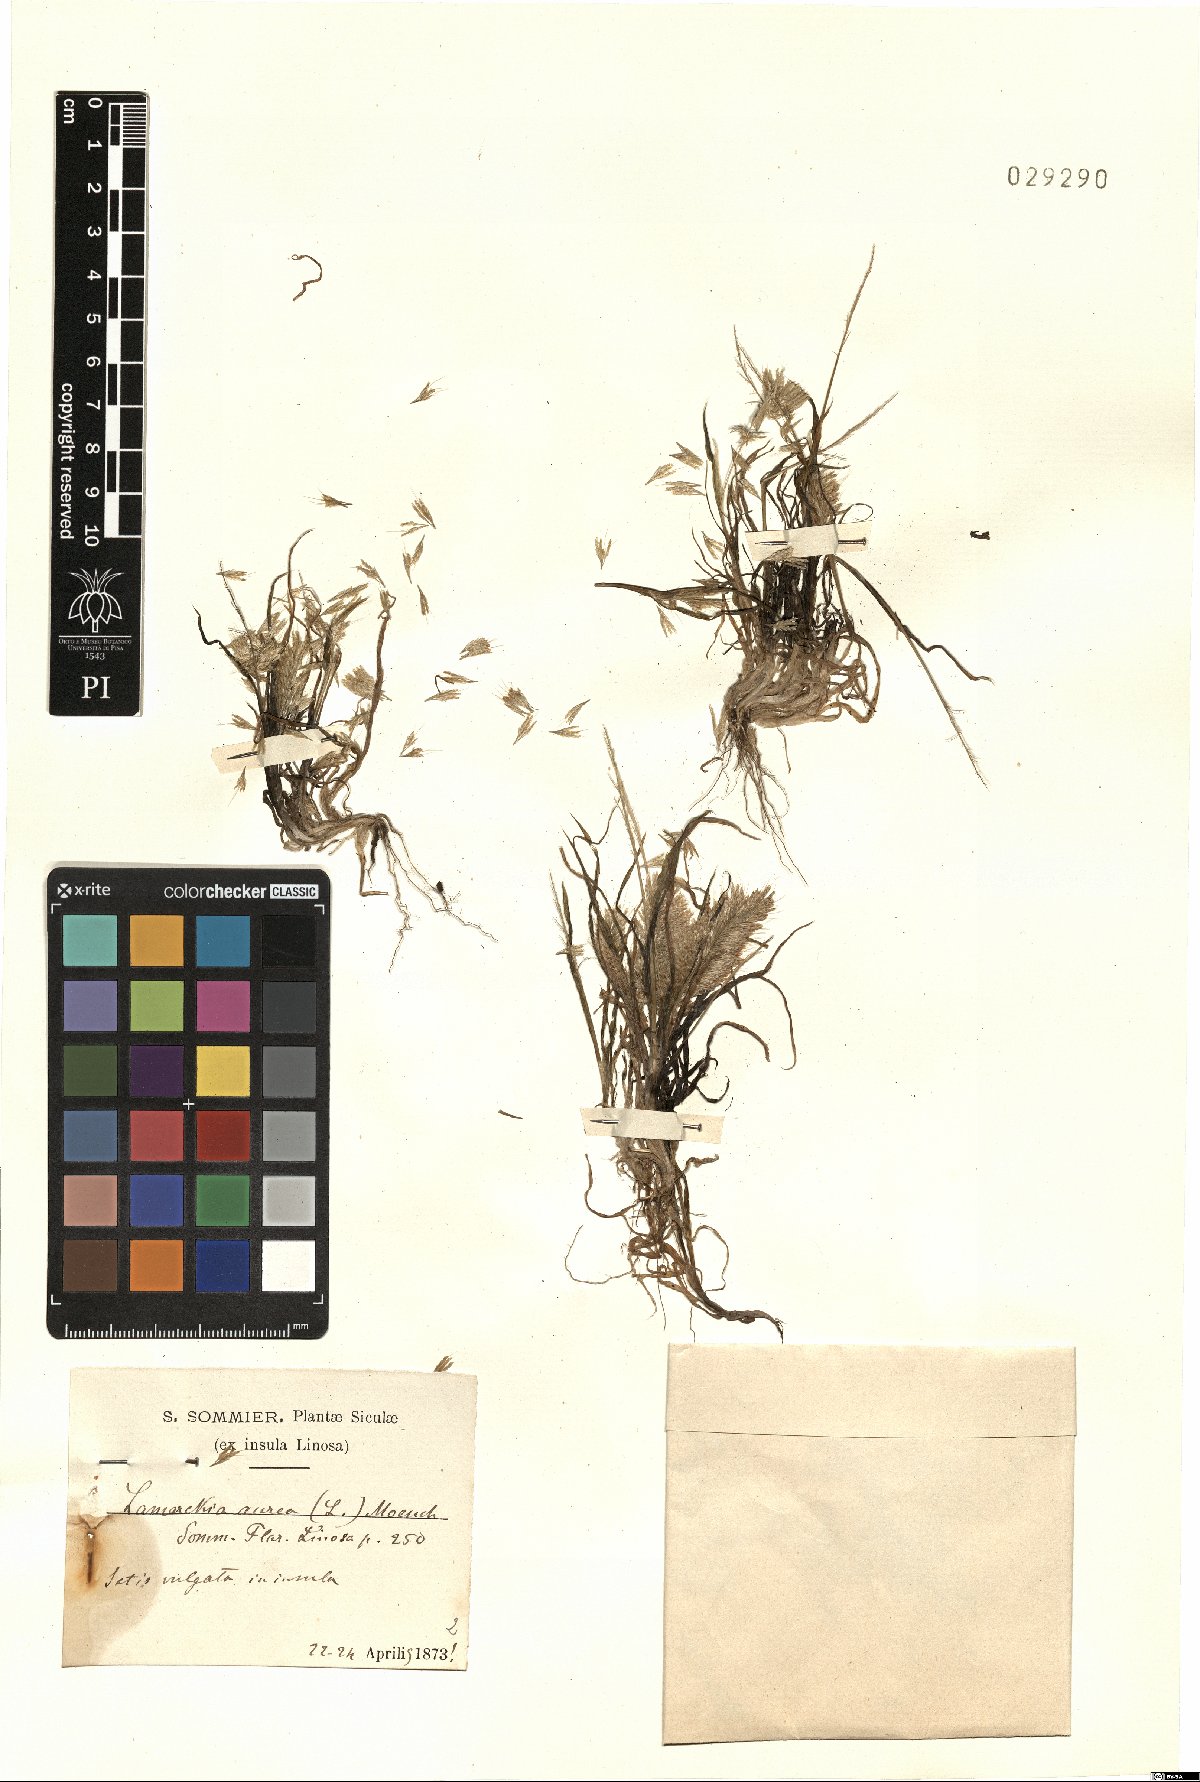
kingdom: Plantae
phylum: Tracheophyta
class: Liliopsida
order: Poales
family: Poaceae
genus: Lamarckia
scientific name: Lamarckia aurea
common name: Golden dog's-tail
